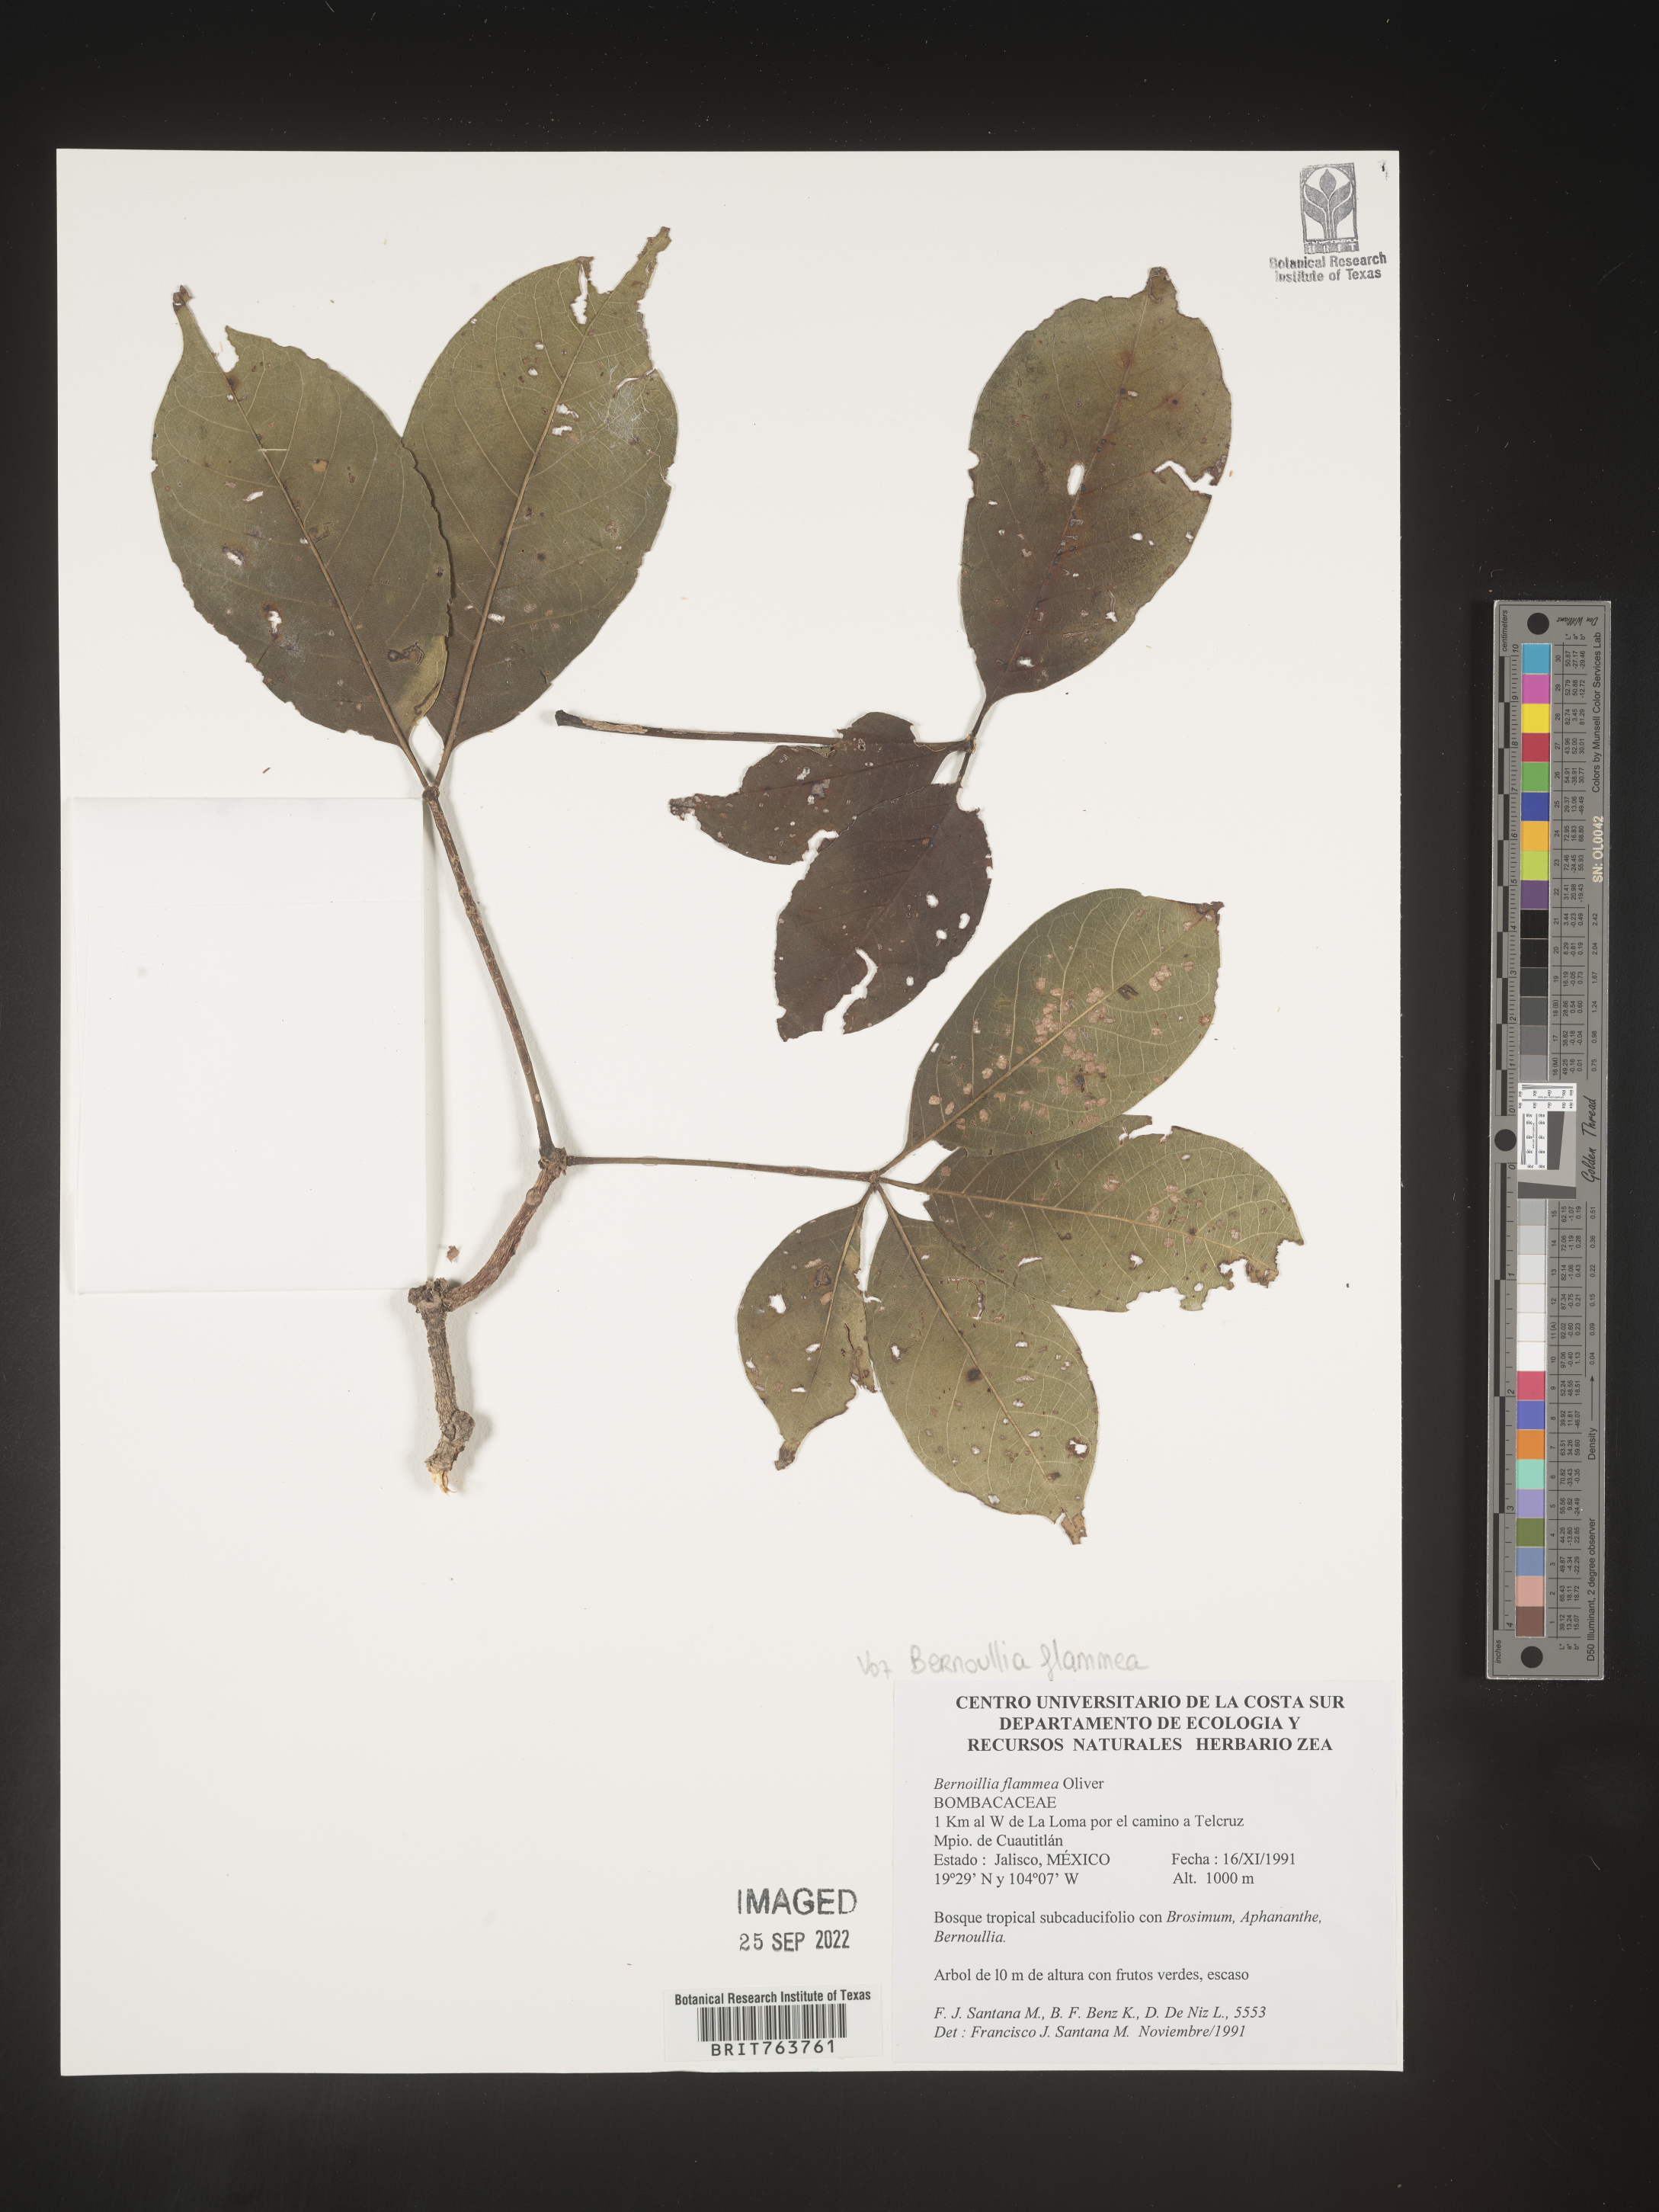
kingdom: Plantae
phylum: Tracheophyta
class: Magnoliopsida
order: Malvales
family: Malvaceae
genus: Bernoullia
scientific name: Bernoullia flammea
